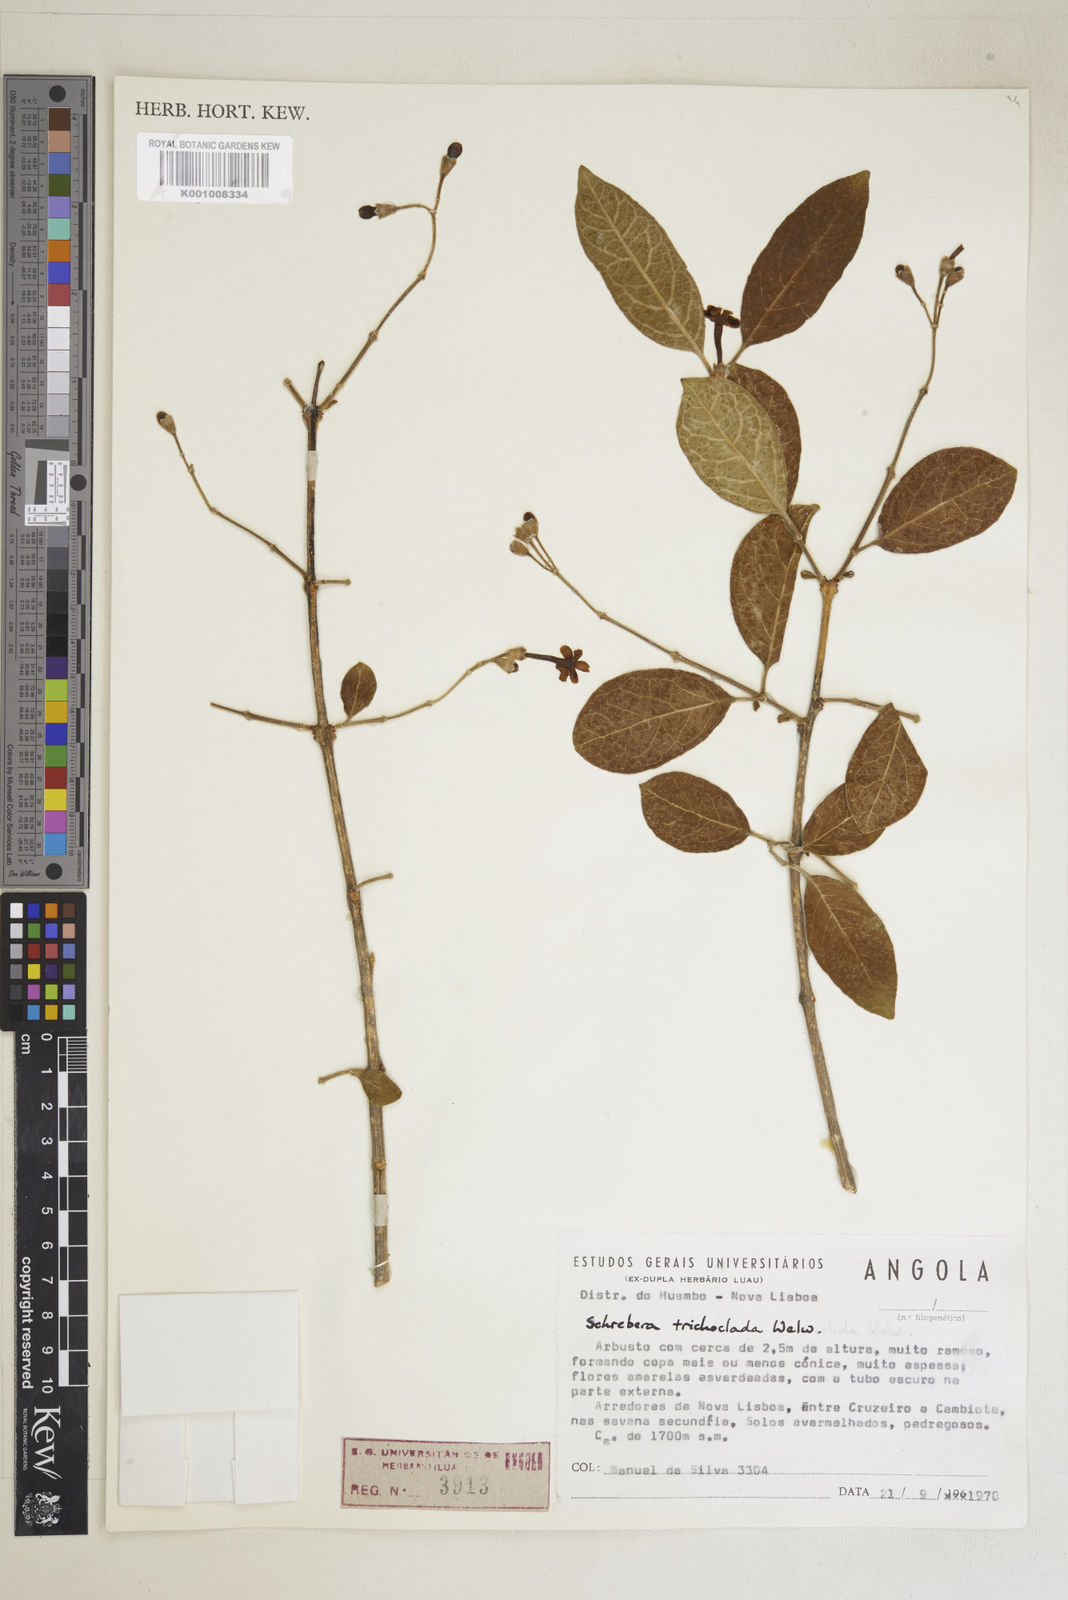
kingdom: Plantae
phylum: Tracheophyta
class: Magnoliopsida
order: Lamiales
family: Oleaceae
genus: Schrebera
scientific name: Schrebera trichoclada
